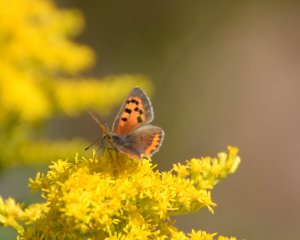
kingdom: Animalia
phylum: Arthropoda
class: Insecta
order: Lepidoptera
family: Lycaenidae
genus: Lycaena
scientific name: Lycaena phlaeas
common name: American Copper
